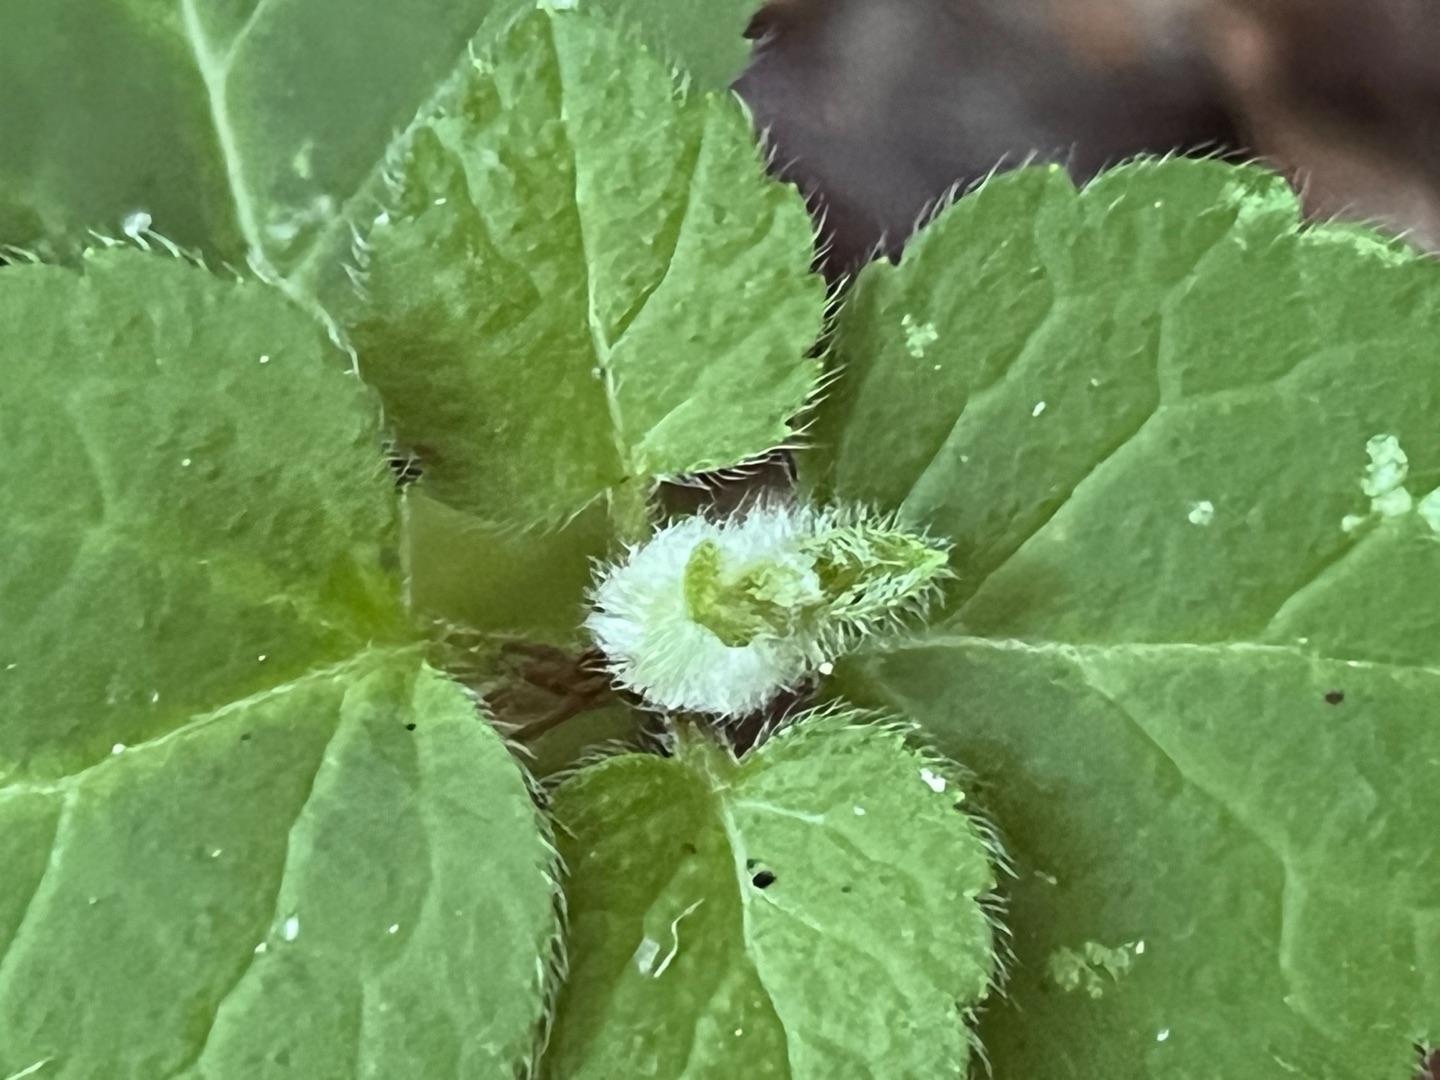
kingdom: Animalia
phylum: Arthropoda
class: Insecta
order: Diptera
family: Cecidomyiidae
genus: Dasineura
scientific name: Dasineura strumosa
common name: Guldnældegalmyg
